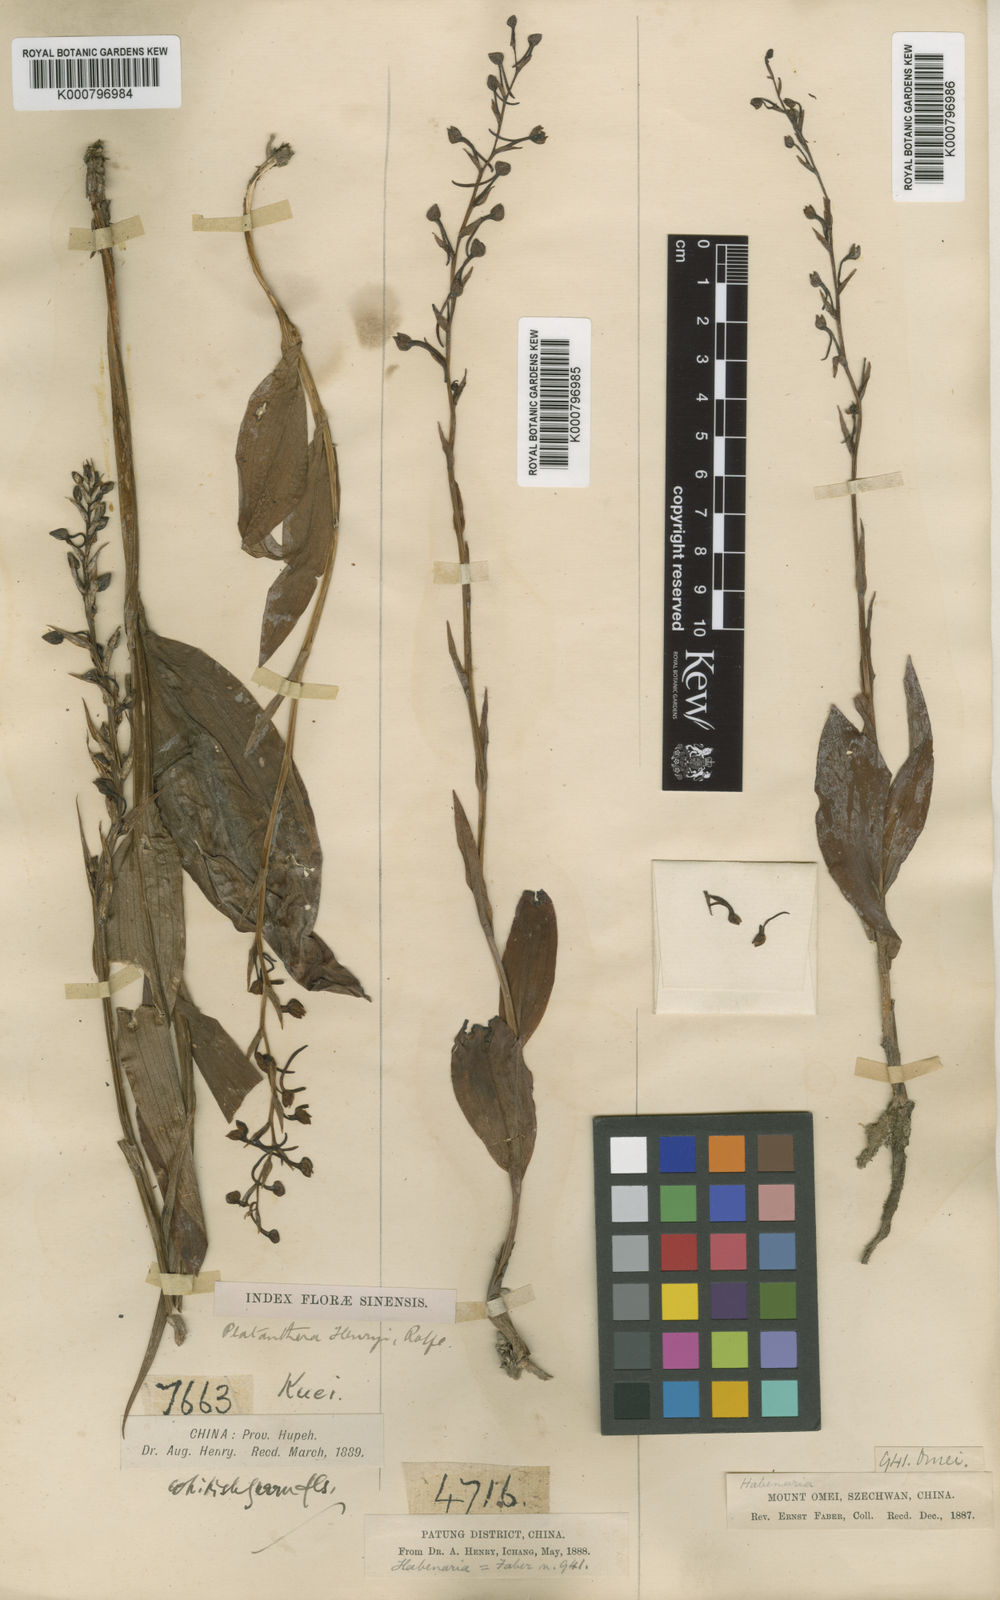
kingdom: Plantae
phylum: Tracheophyta
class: Liliopsida
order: Asparagales
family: Orchidaceae
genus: Platanthera
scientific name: Platanthera
